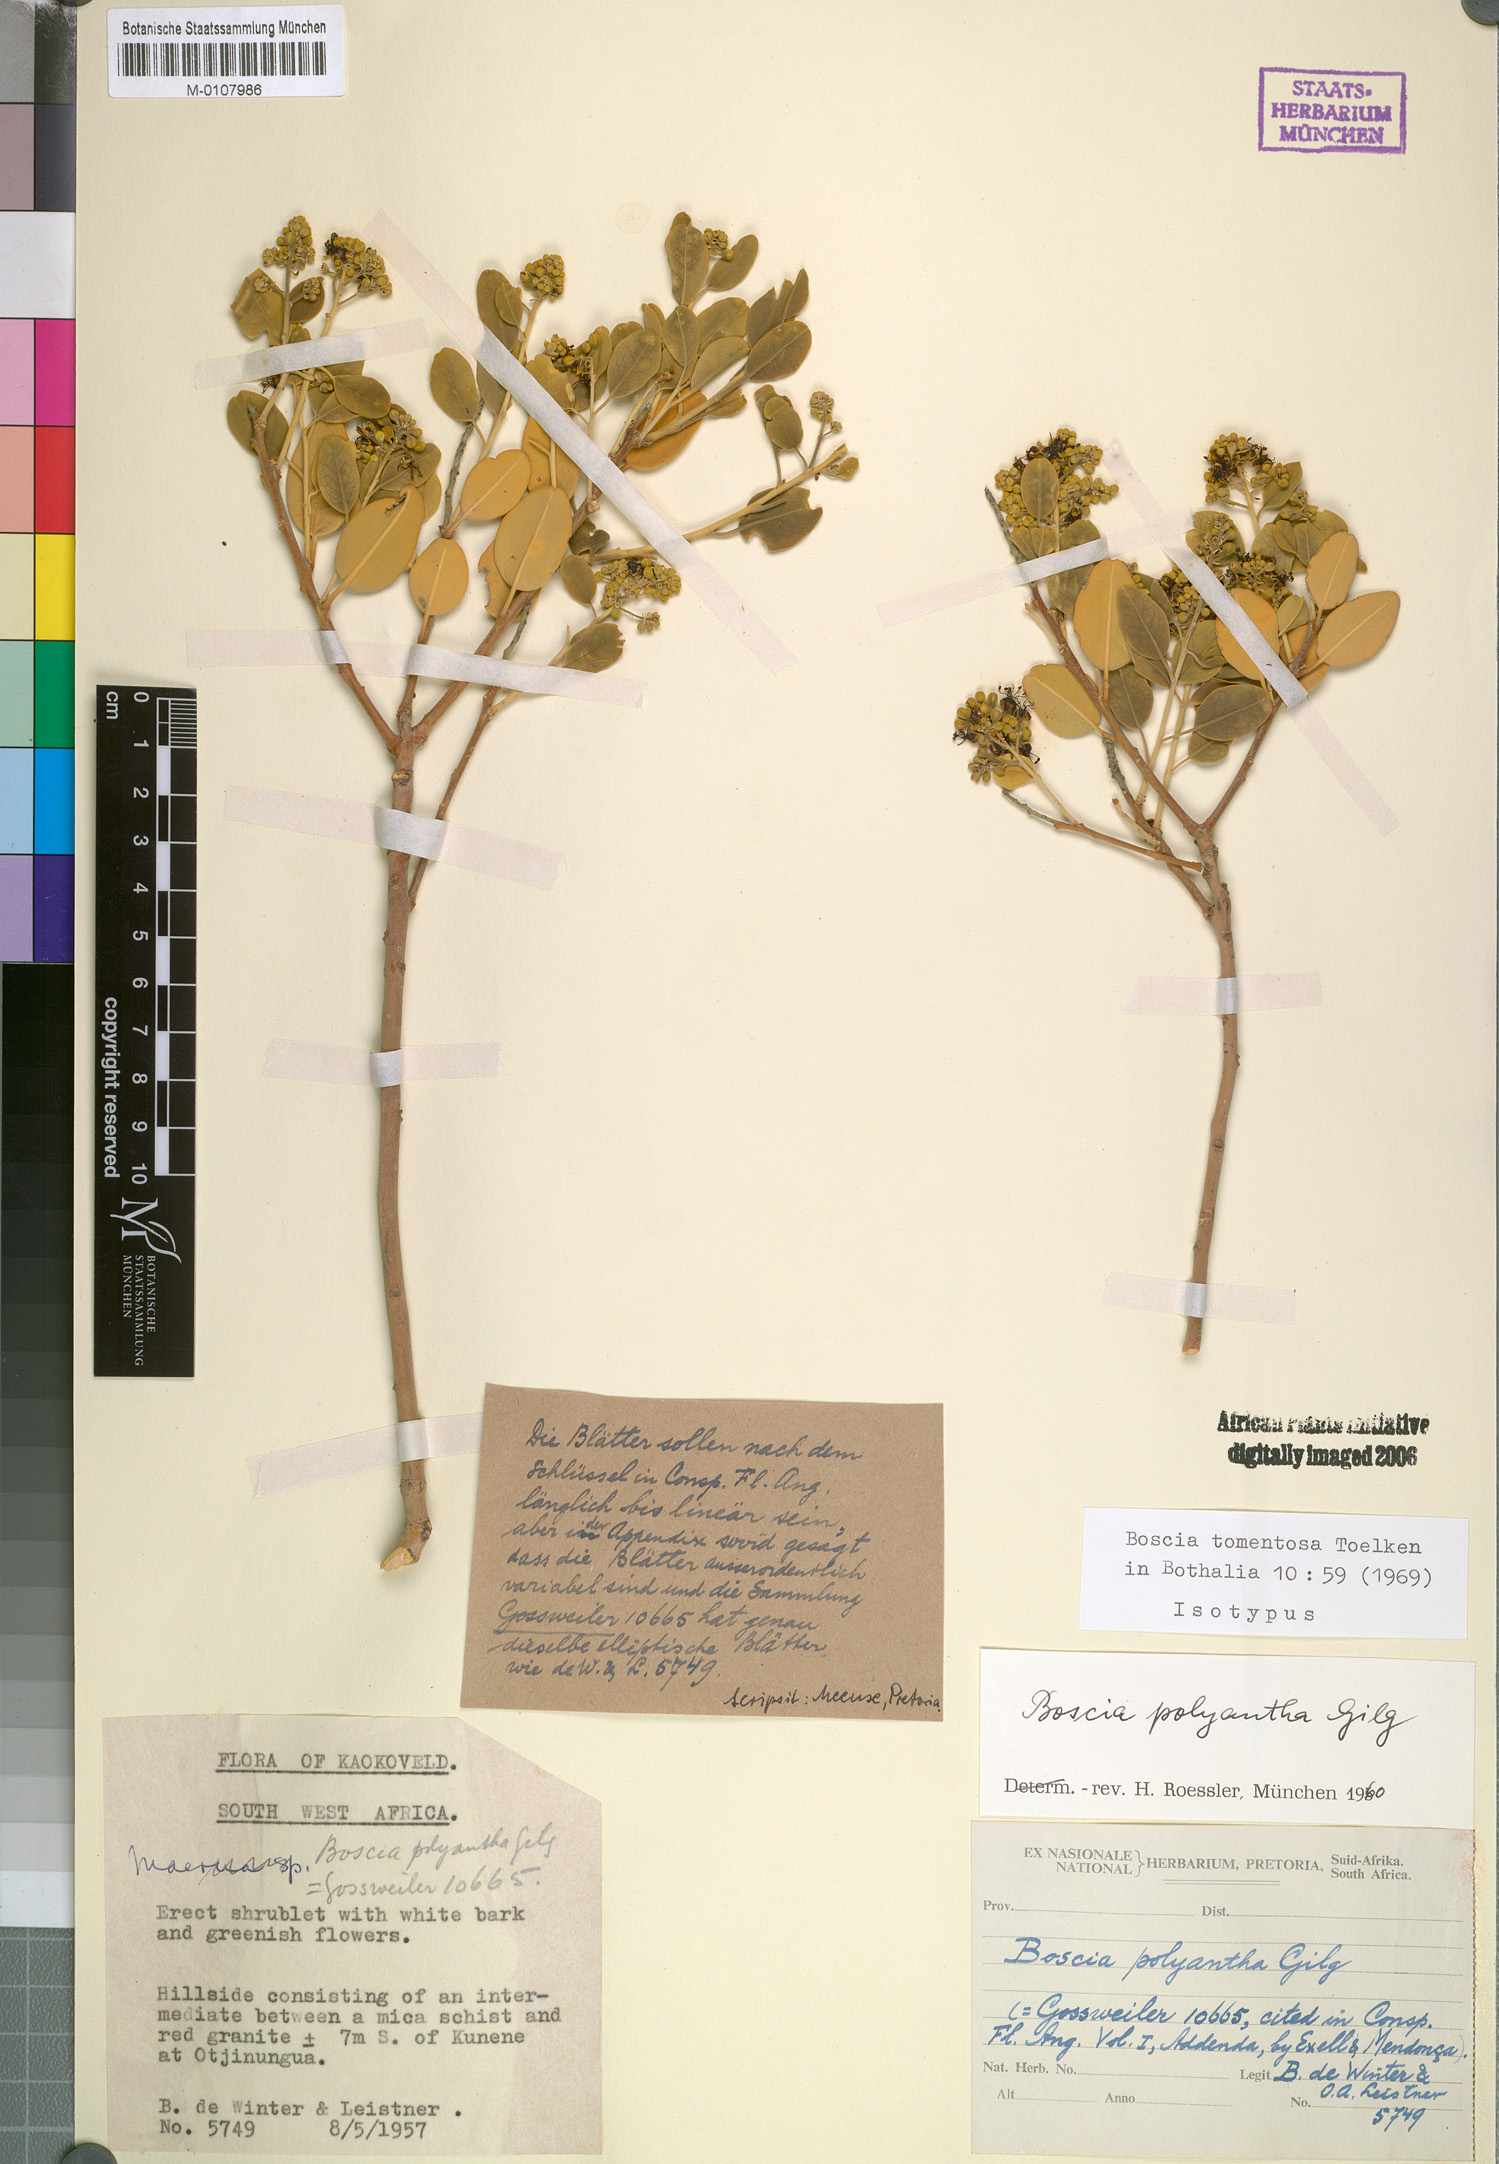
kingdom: Plantae
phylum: Tracheophyta
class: Magnoliopsida
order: Brassicales
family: Capparaceae
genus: Boscia
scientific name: Boscia tomentosa
